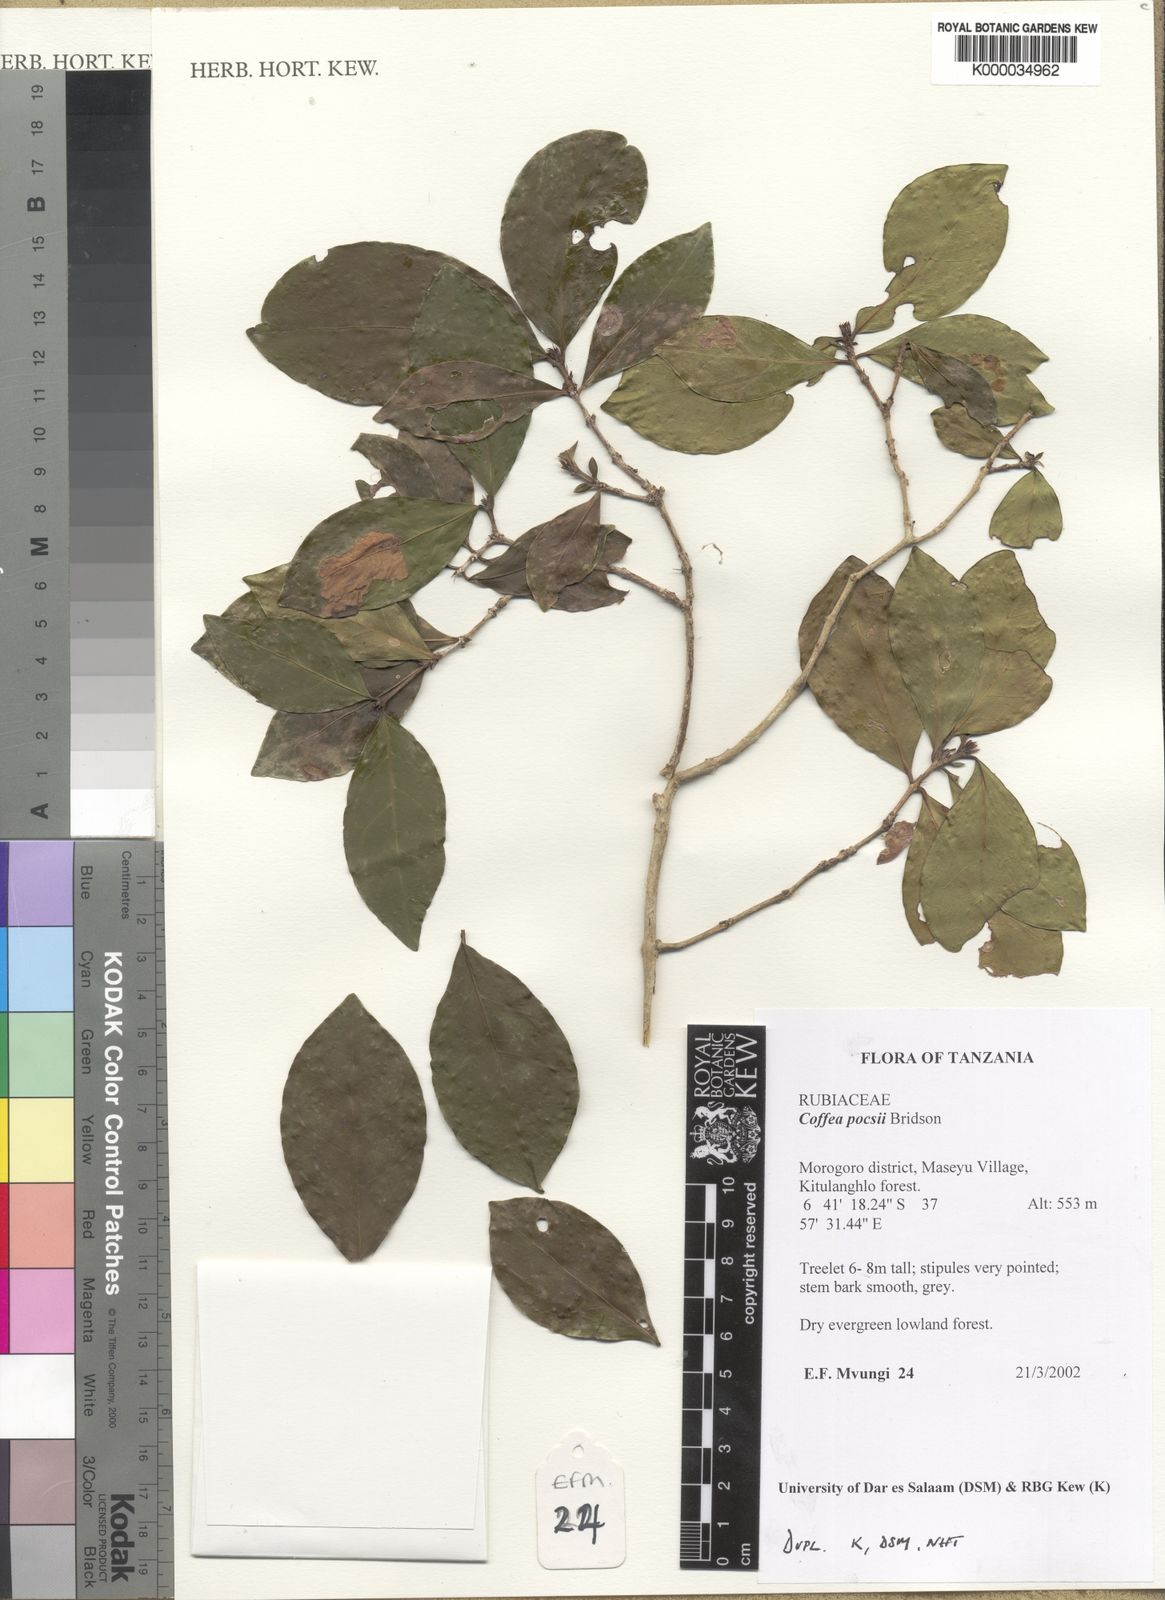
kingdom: Plantae
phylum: Tracheophyta
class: Magnoliopsida
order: Gentianales
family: Rubiaceae
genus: Coffea
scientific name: Coffea pocsii
